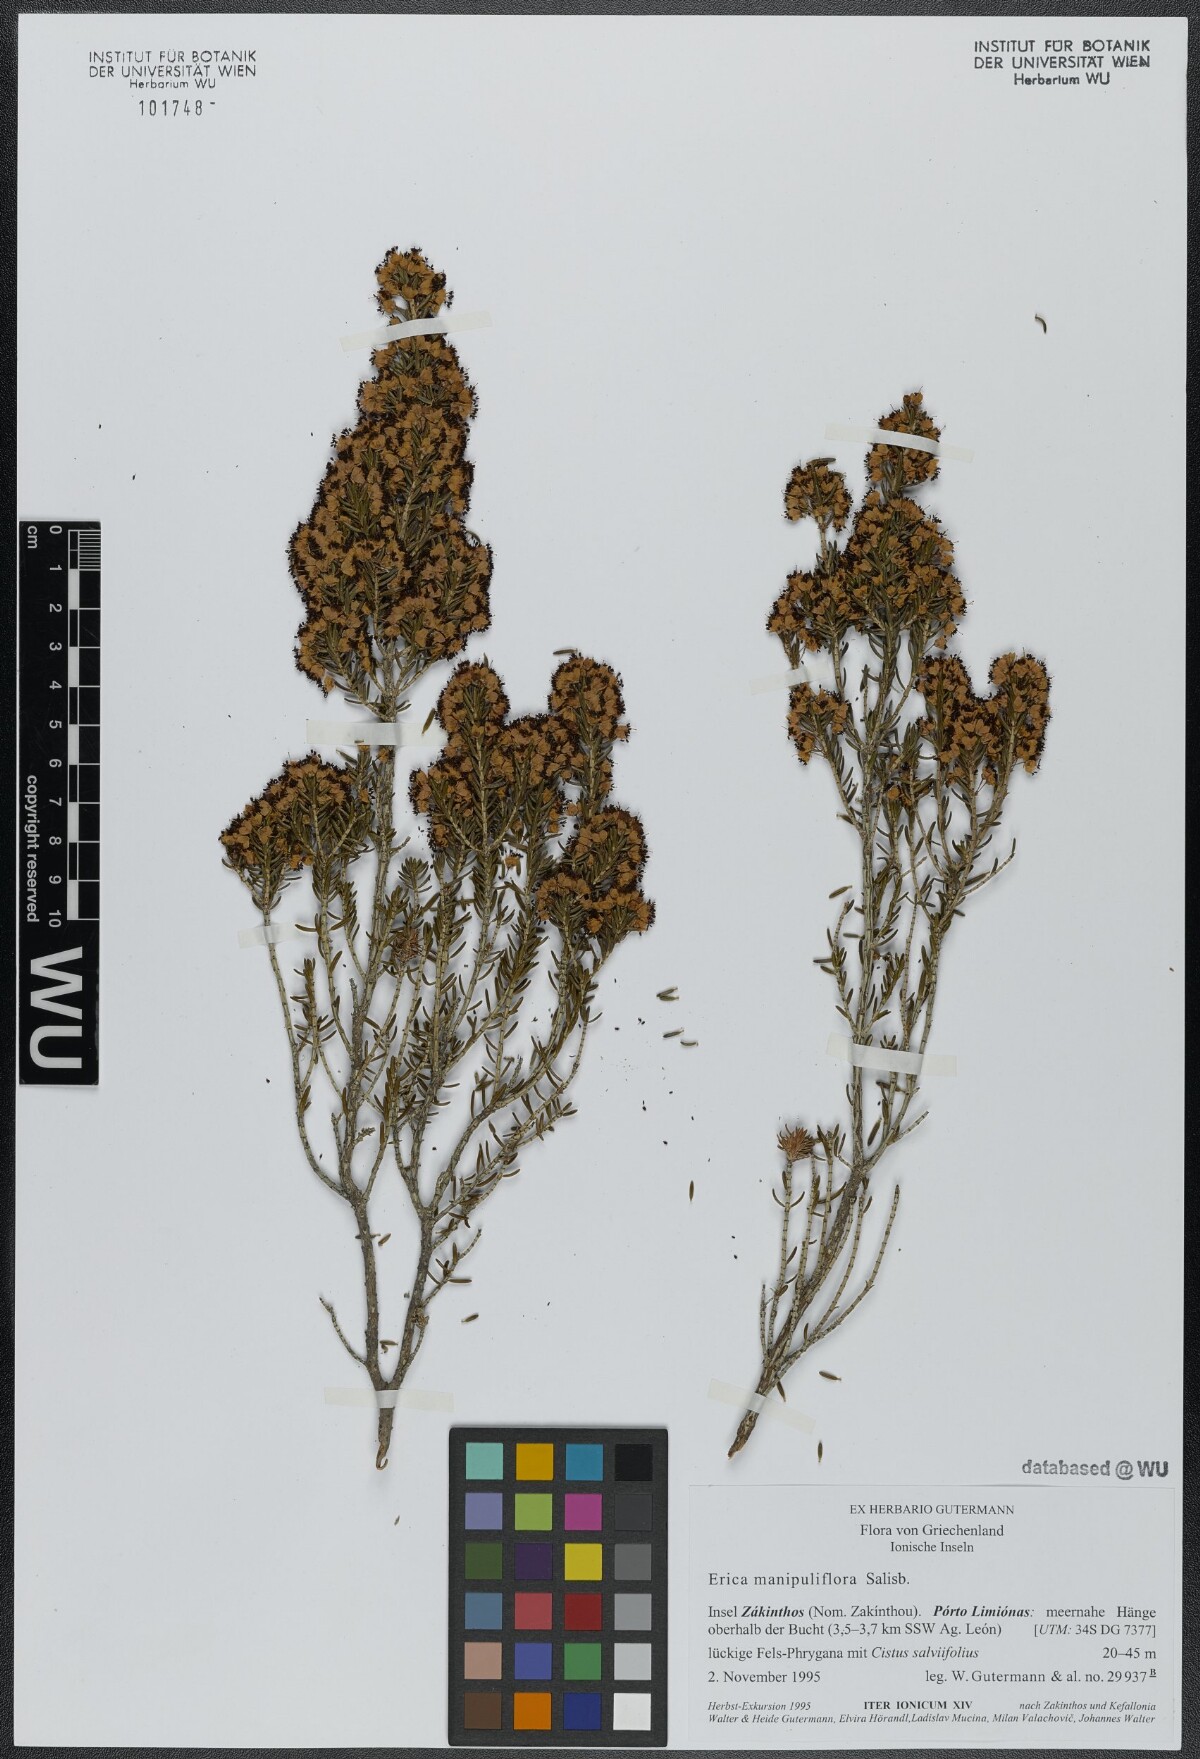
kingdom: Plantae
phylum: Tracheophyta
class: Magnoliopsida
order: Ericales
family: Ericaceae
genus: Erica
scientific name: Erica manipuliflora
